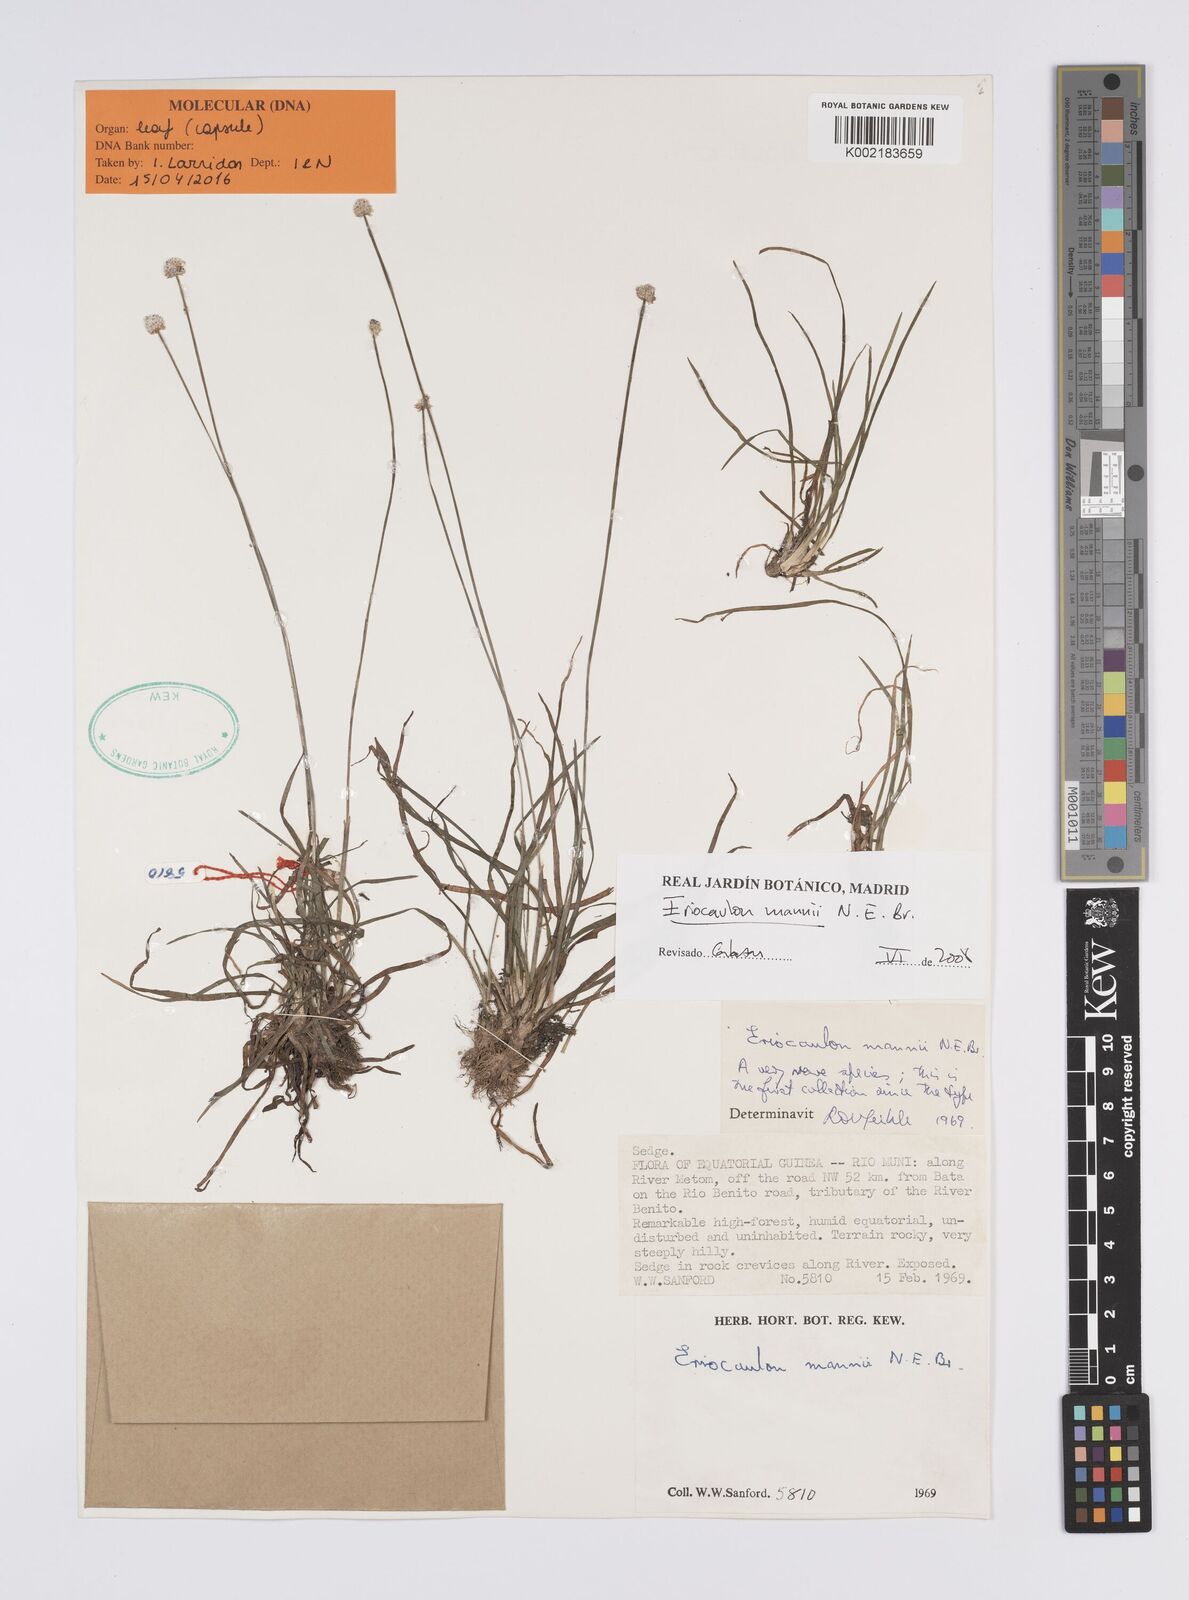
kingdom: Plantae
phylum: Tracheophyta
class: Liliopsida
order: Poales
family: Eriocaulaceae
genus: Eriocaulon
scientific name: Eriocaulon mannii
